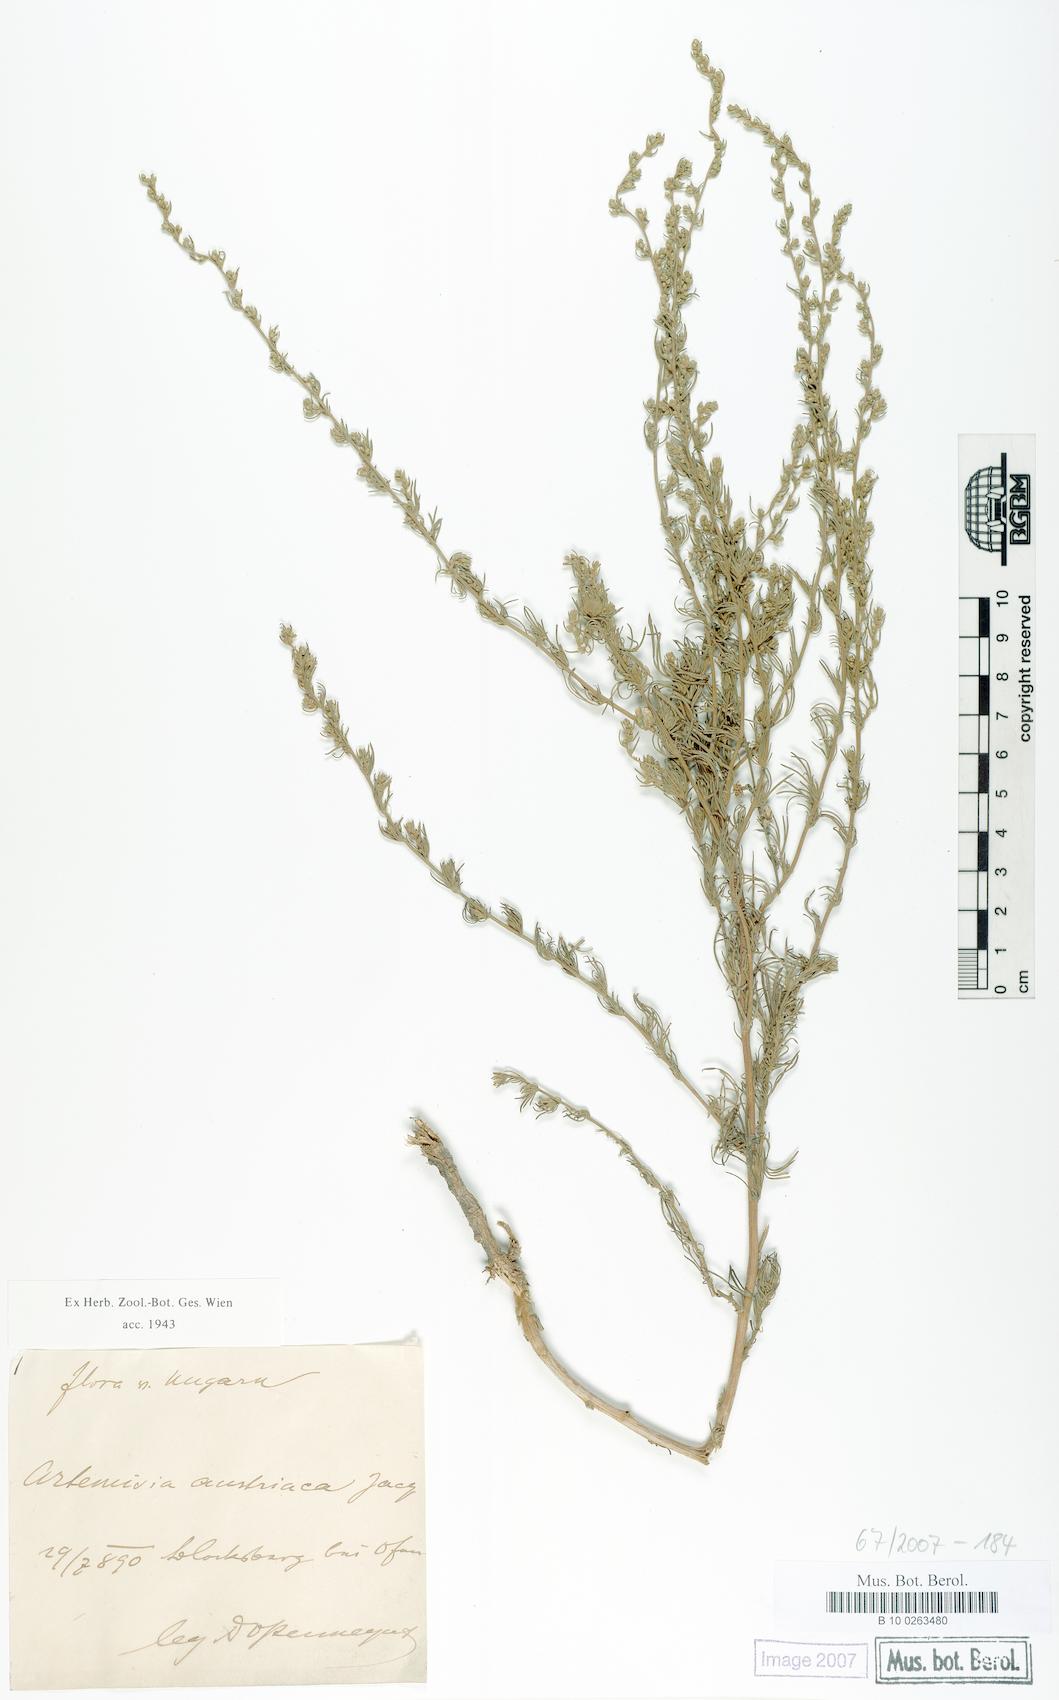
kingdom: Plantae
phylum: Tracheophyta
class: Magnoliopsida
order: Asterales
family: Asteraceae
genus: Artemisia
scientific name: Artemisia austriaca
